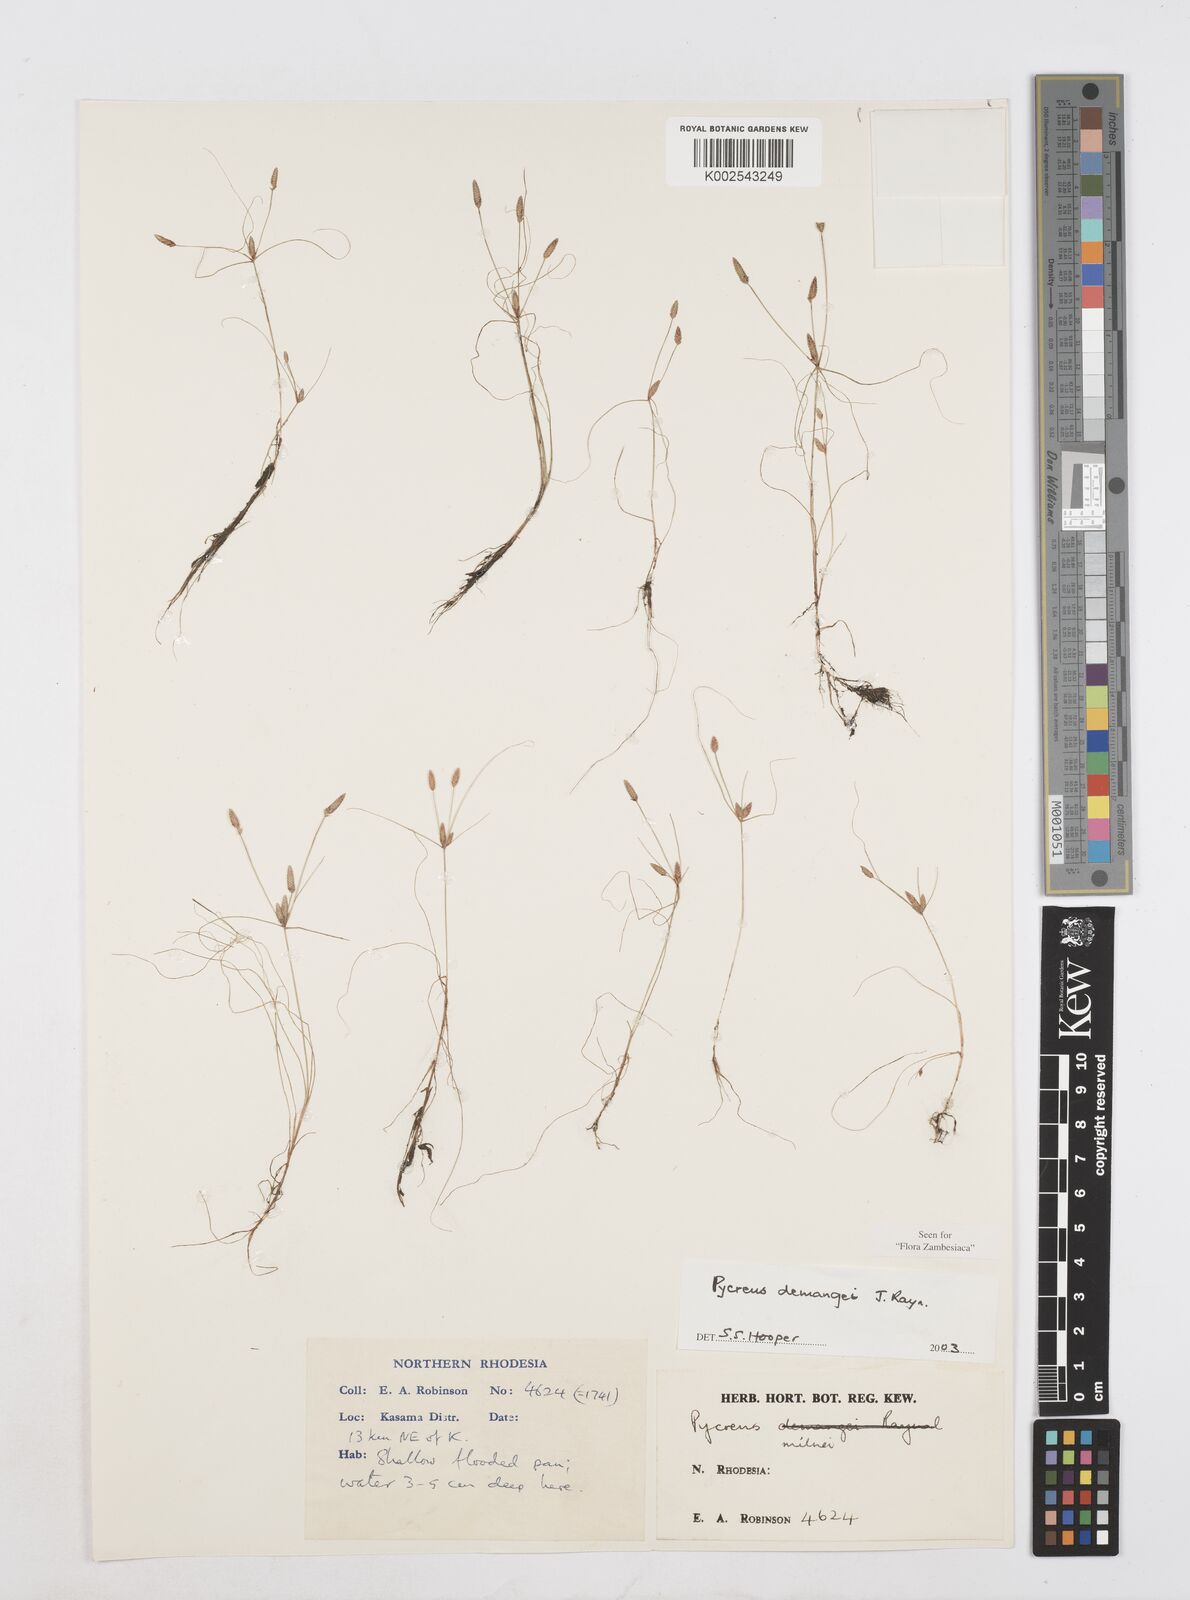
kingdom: Plantae
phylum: Tracheophyta
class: Liliopsida
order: Poales
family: Cyperaceae
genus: Cyperus
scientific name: Cyperus demangei
